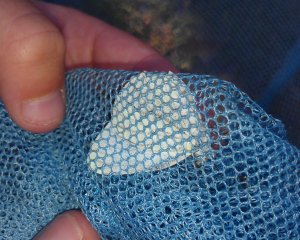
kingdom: Animalia
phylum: Arthropoda
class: Insecta
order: Lepidoptera
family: Pieridae
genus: Pieris
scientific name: Pieris oleracea
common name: Mustard White
